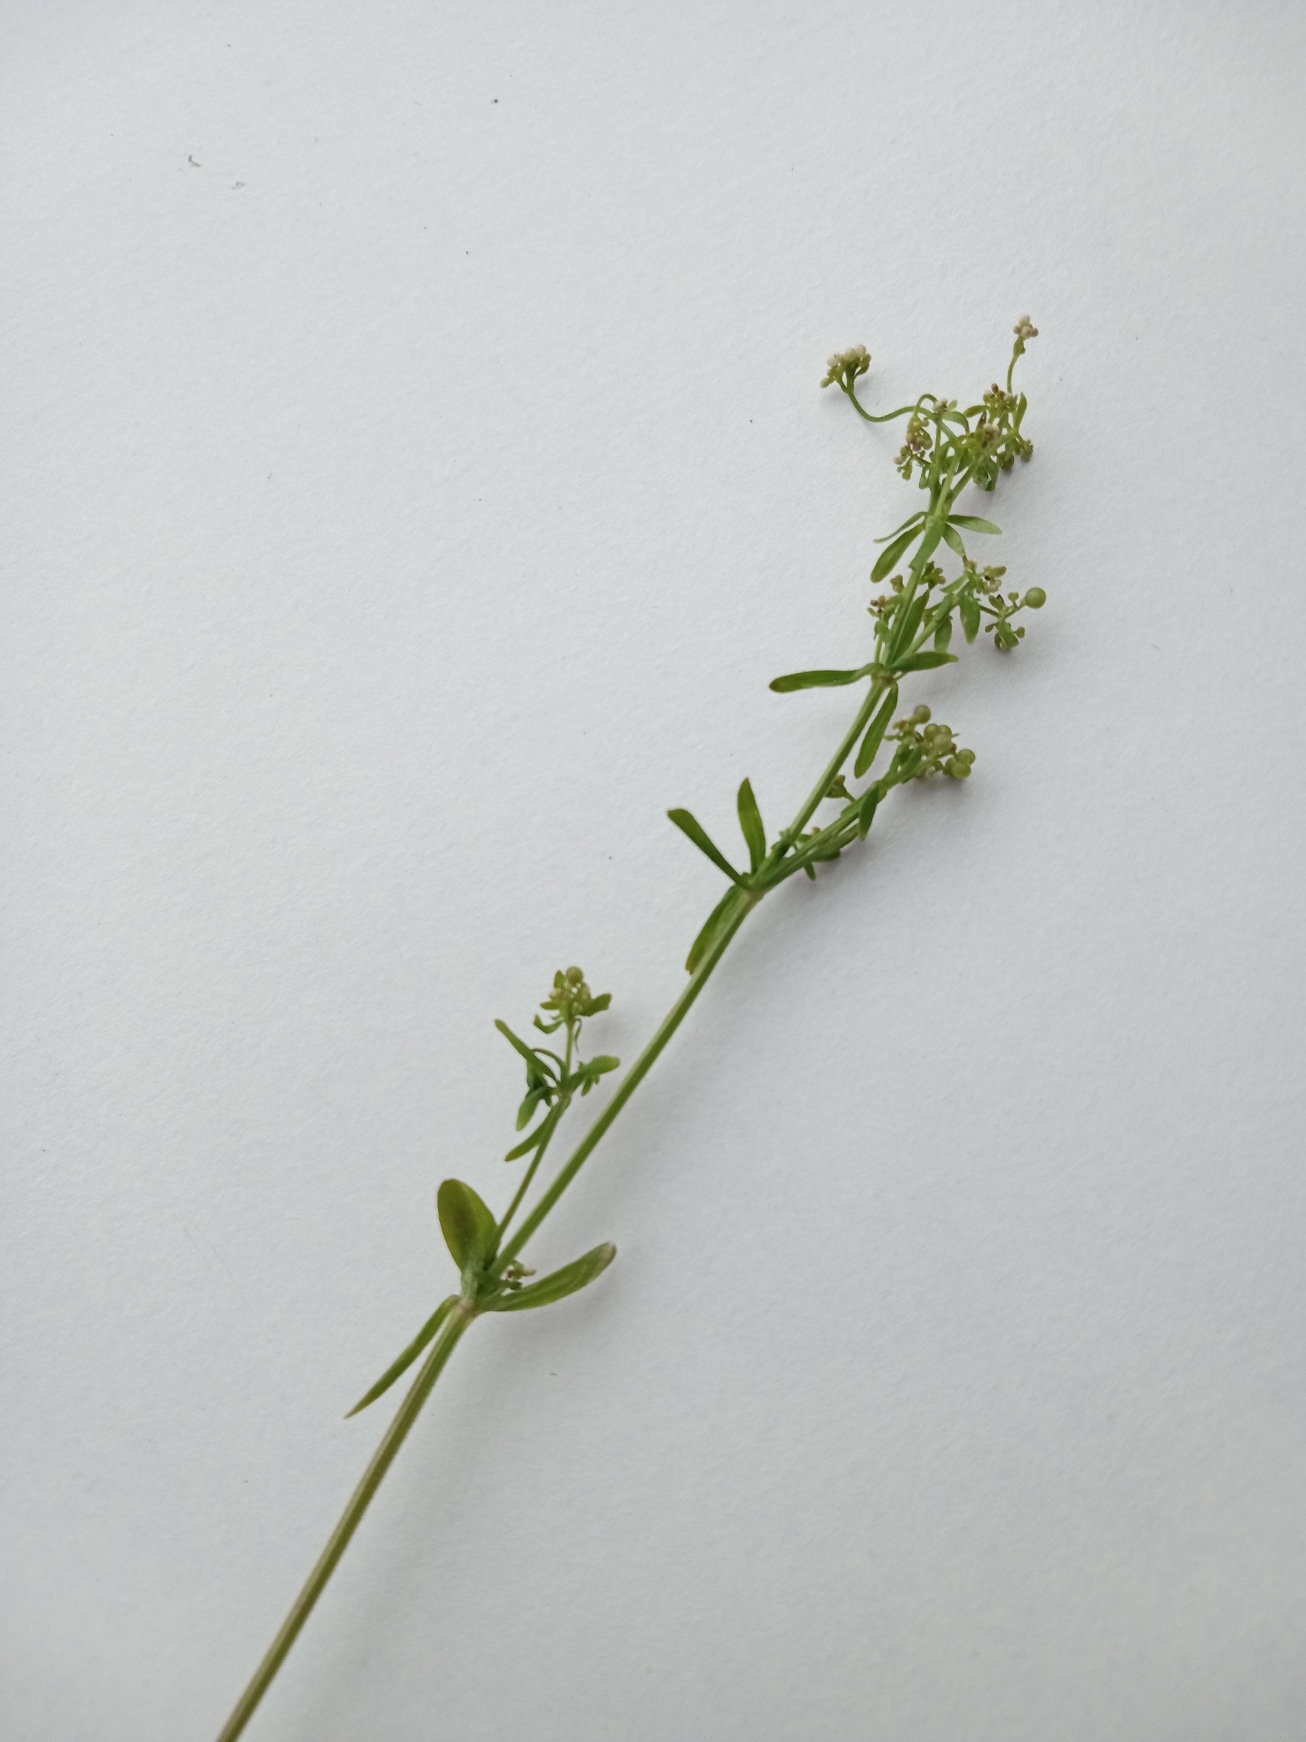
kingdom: Plantae
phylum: Tracheophyta
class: Magnoliopsida
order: Gentianales
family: Rubiaceae
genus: Galium
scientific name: Galium palustre
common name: Kær-snerre
